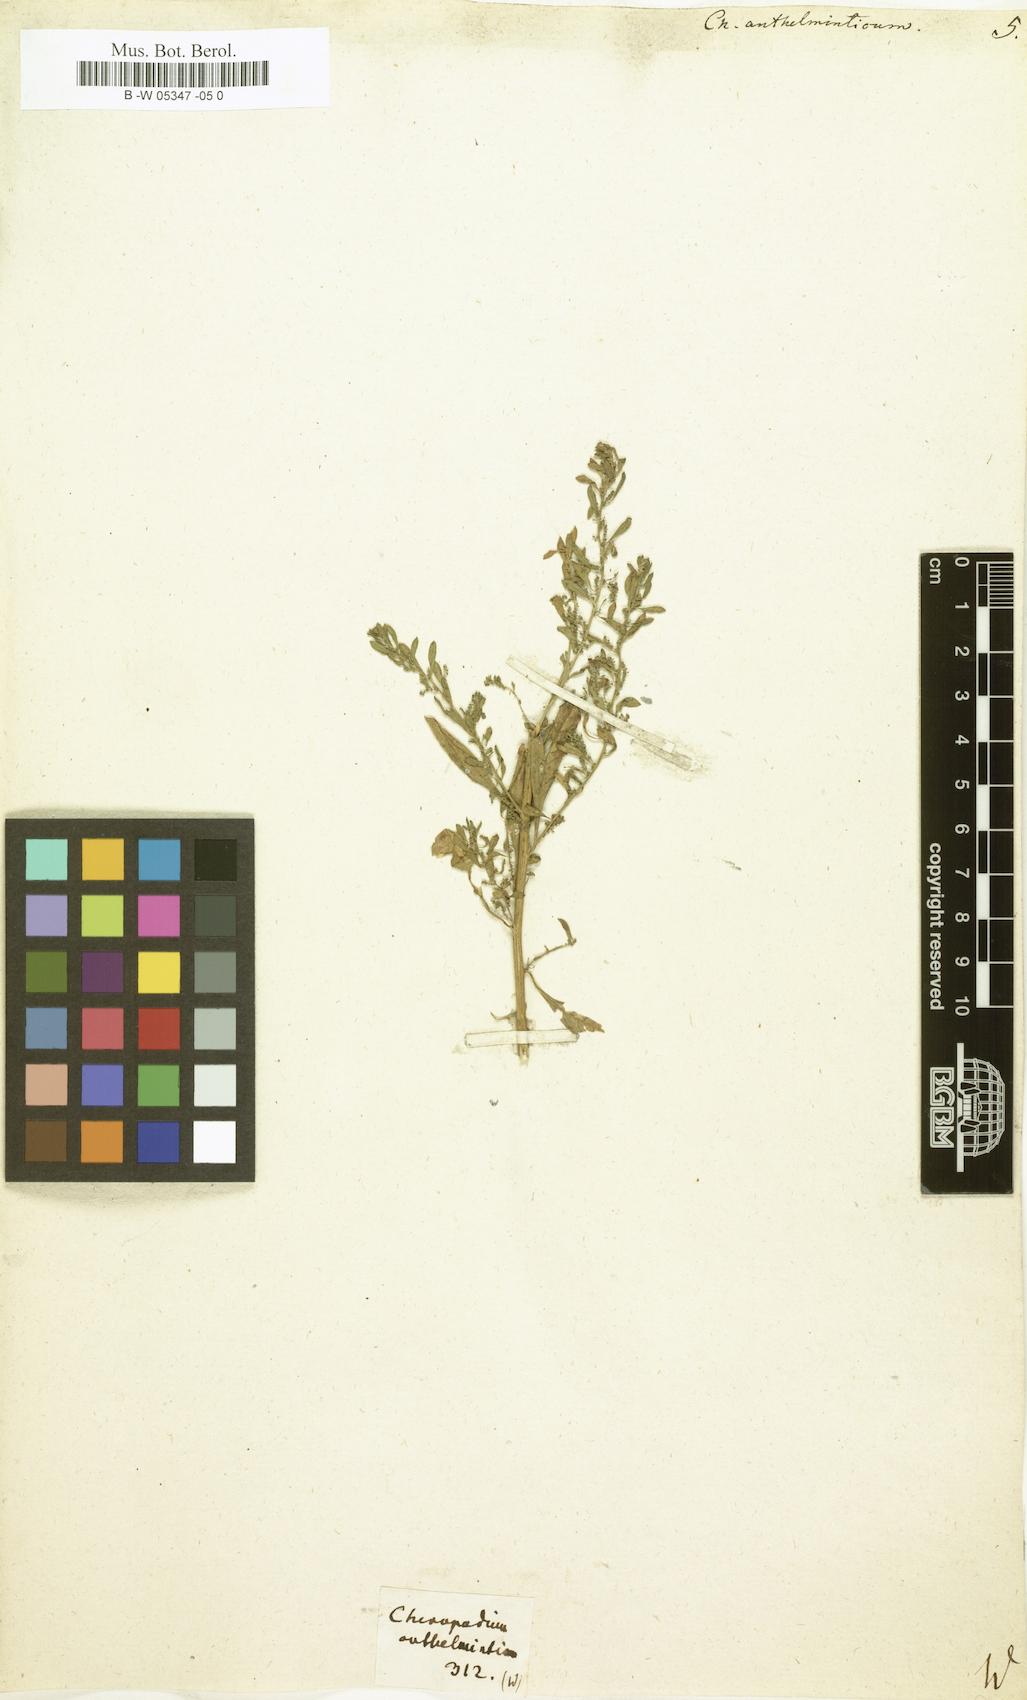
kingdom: Plantae
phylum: Tracheophyta
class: Magnoliopsida
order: Caryophyllales
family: Amaranthaceae
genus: Dysphania
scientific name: Dysphania anthelmintica
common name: Wormseed
